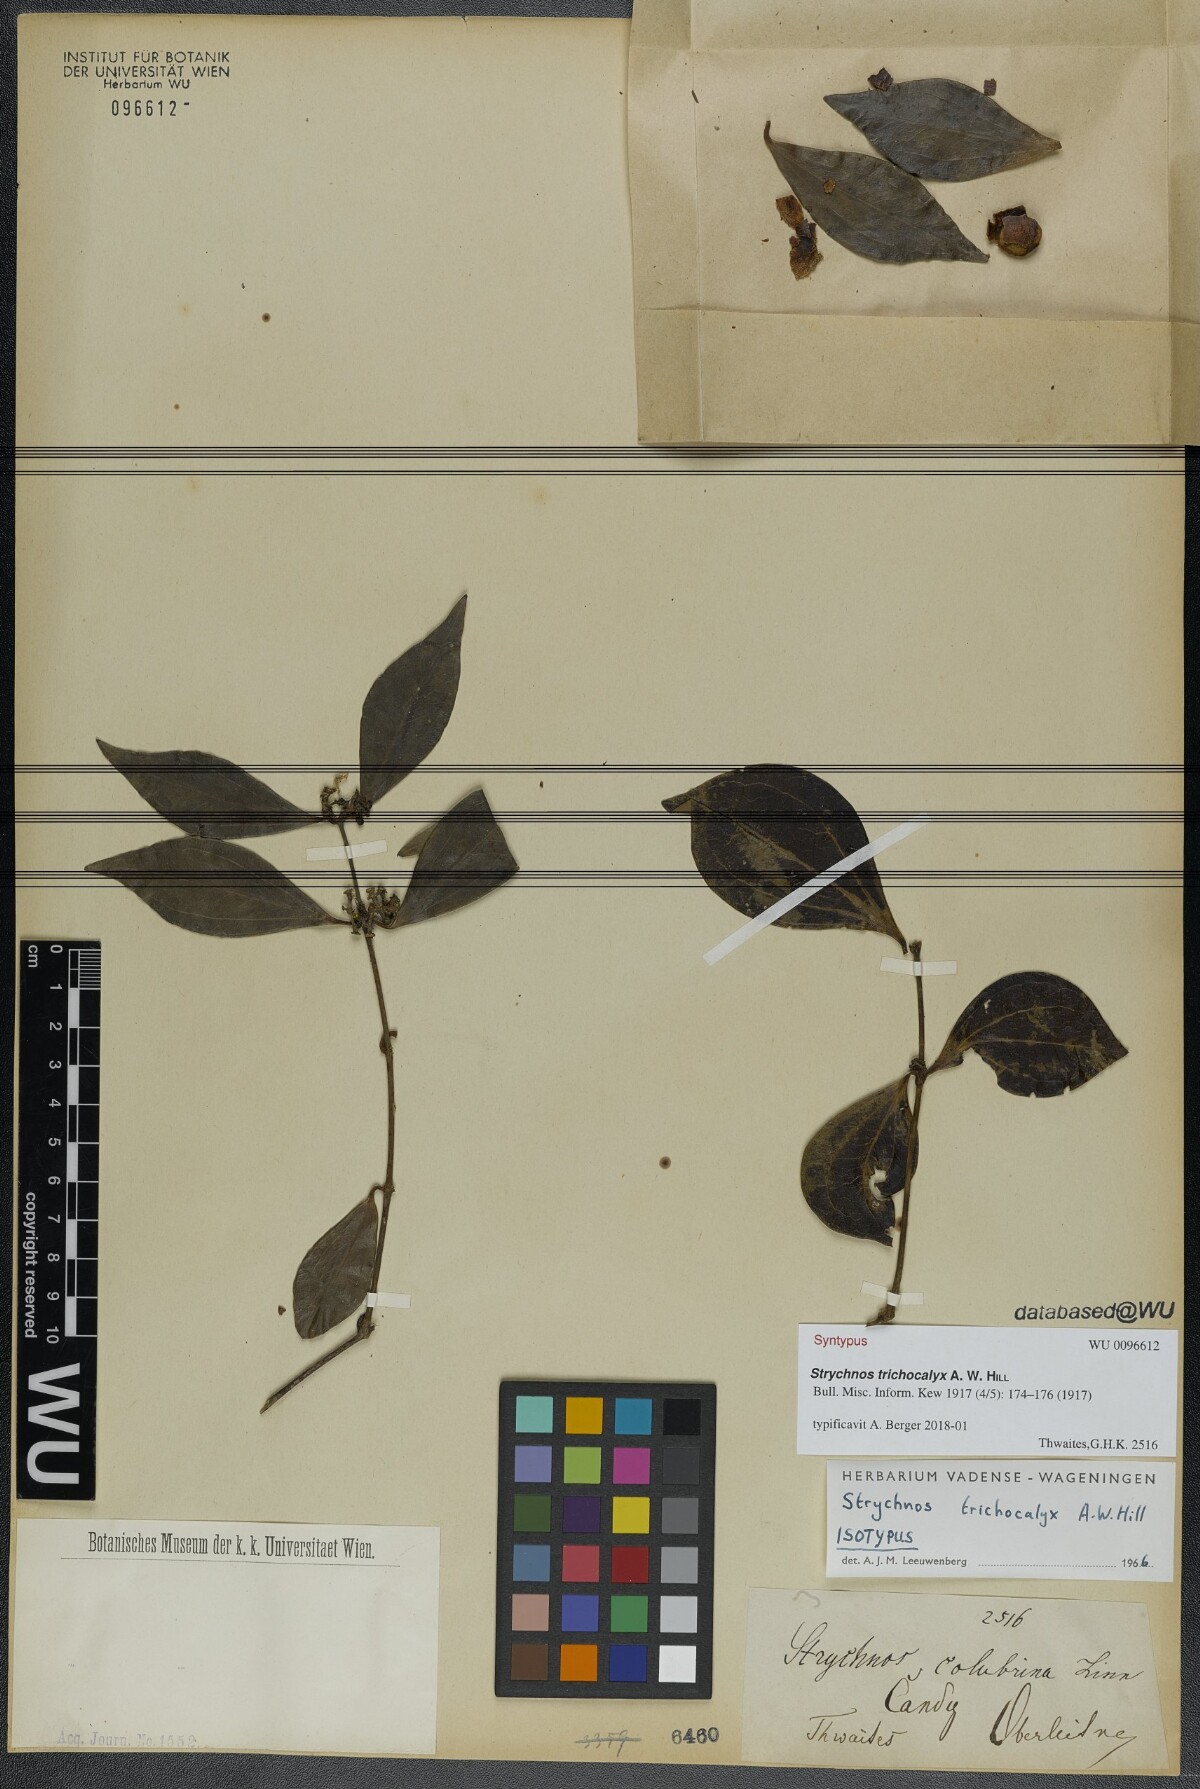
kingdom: Plantae
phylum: Tracheophyta
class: Magnoliopsida
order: Gentianales
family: Loganiaceae
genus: Strychnos
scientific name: Strychnos trichocalyx
